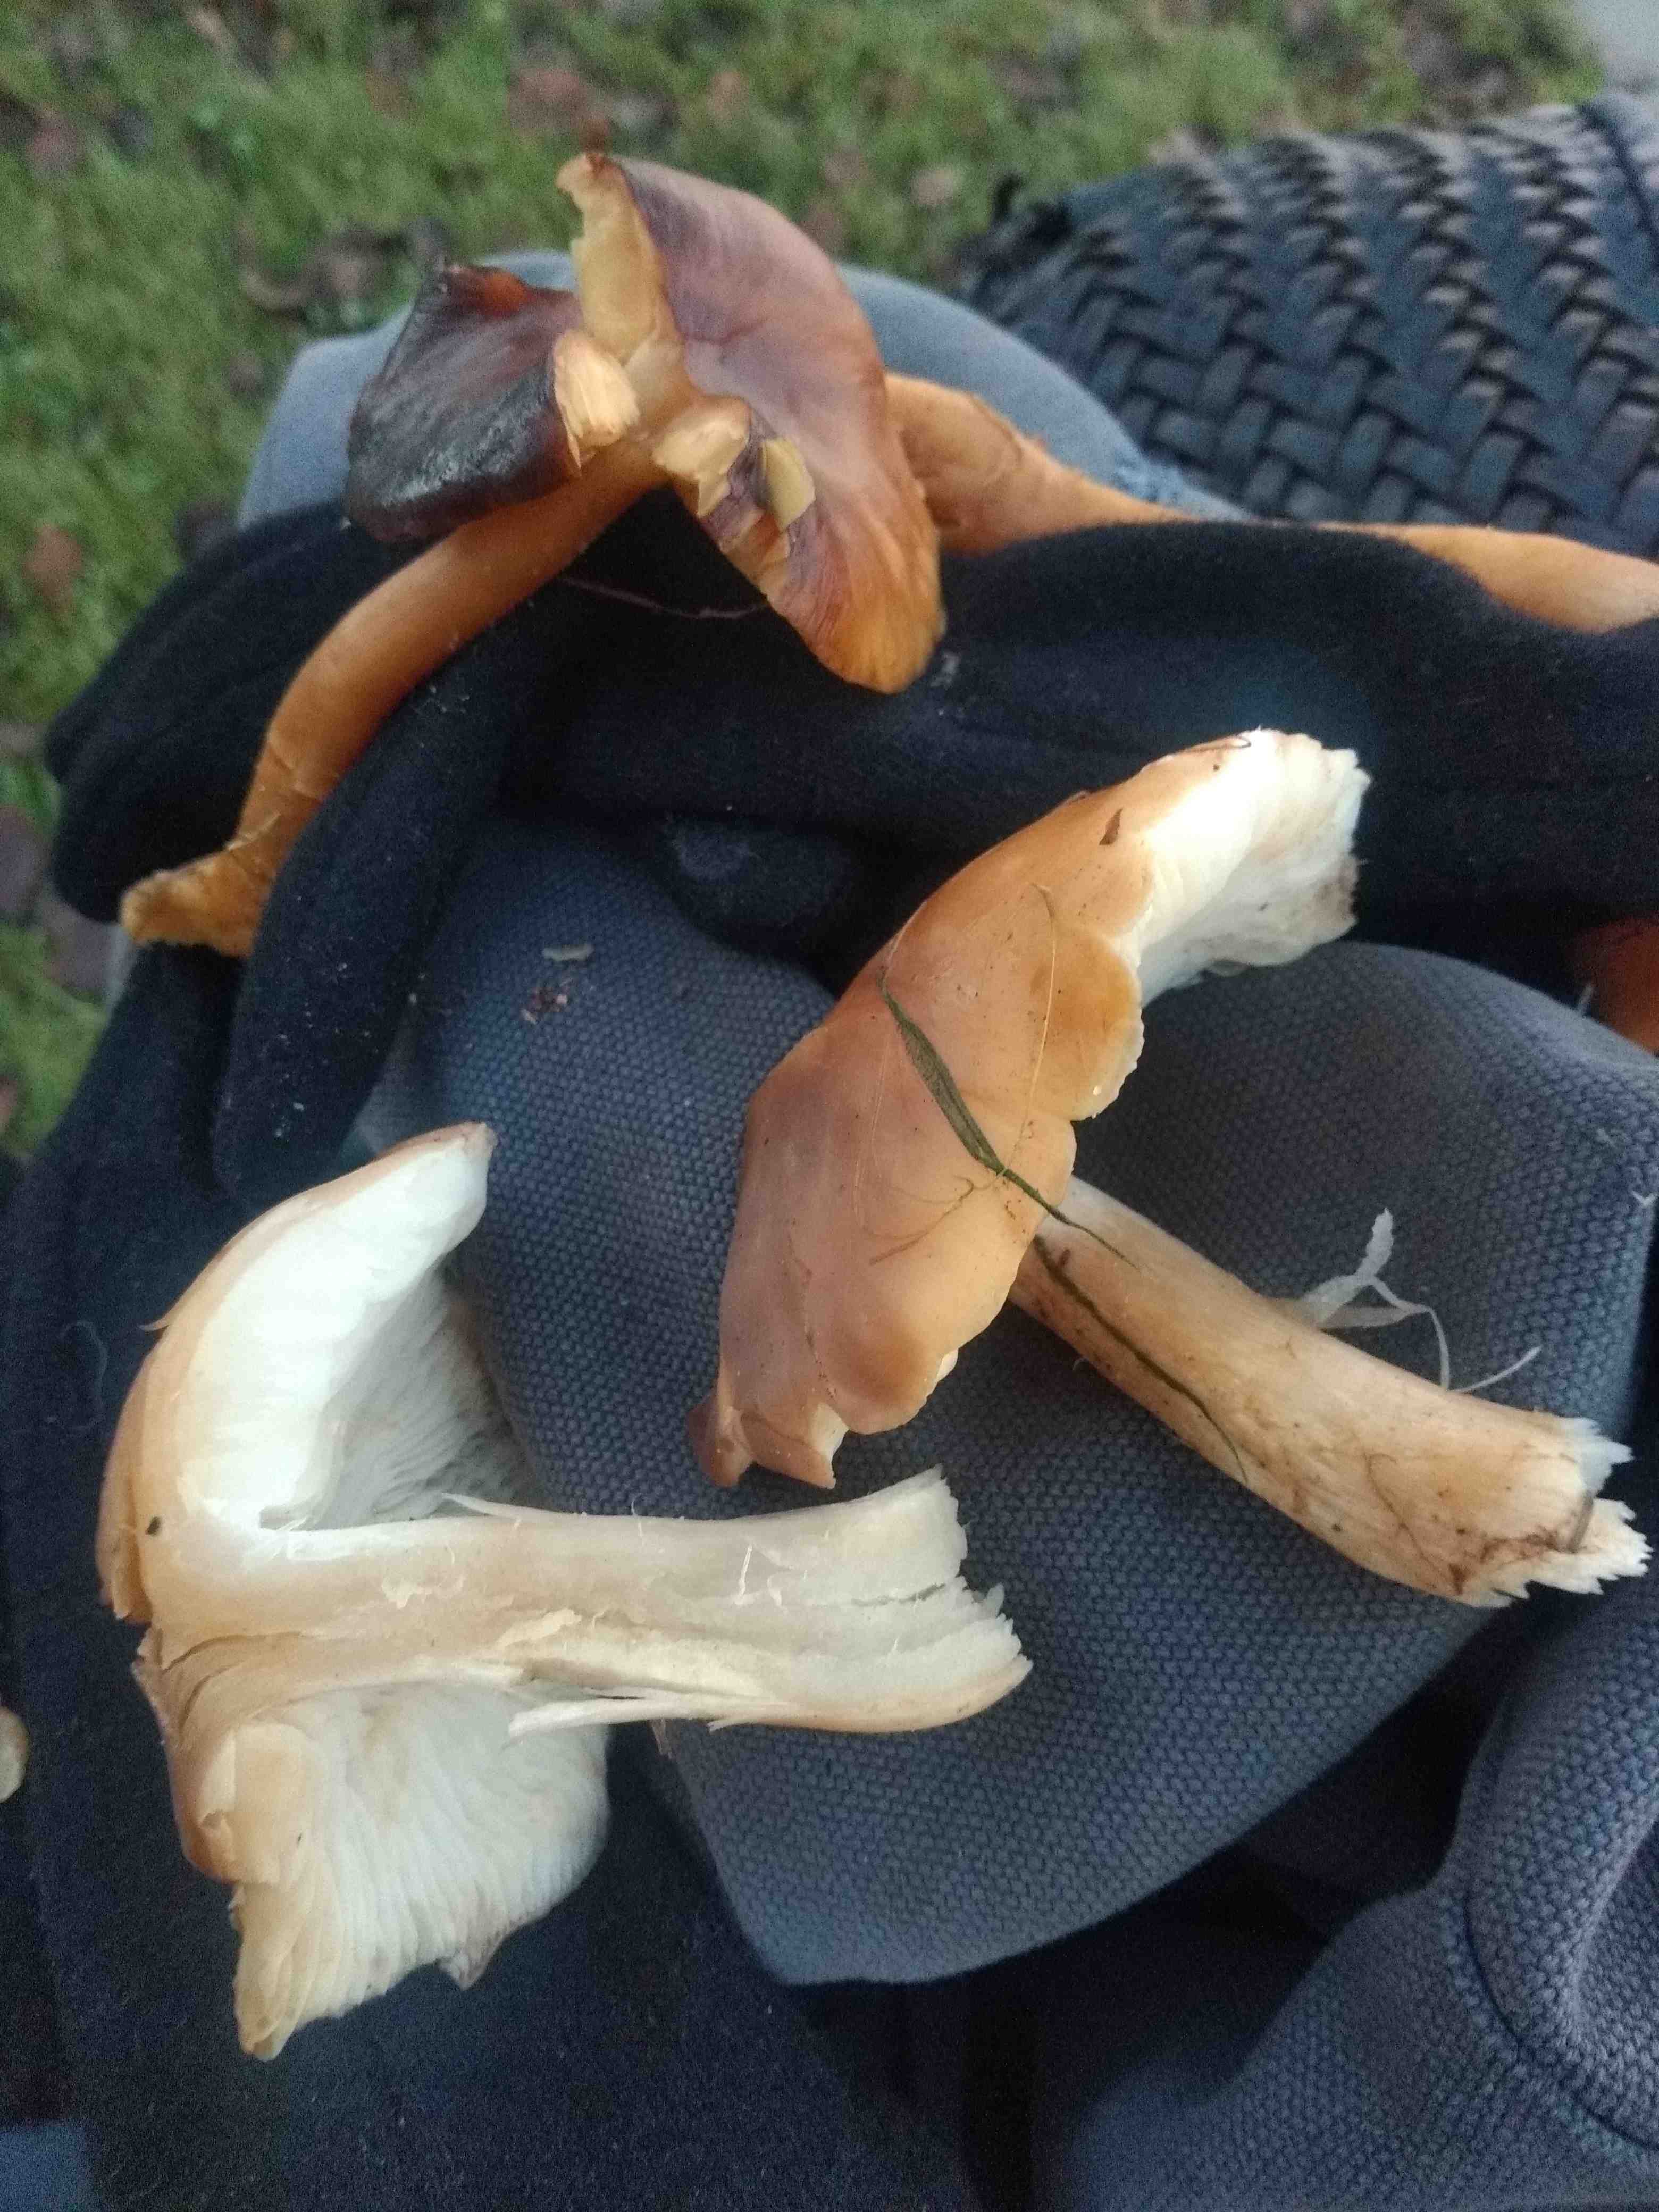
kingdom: Fungi
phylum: Basidiomycota
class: Agaricomycetes
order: Agaricales
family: Lyophyllaceae
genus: Lyophyllum
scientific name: Lyophyllum decastes
